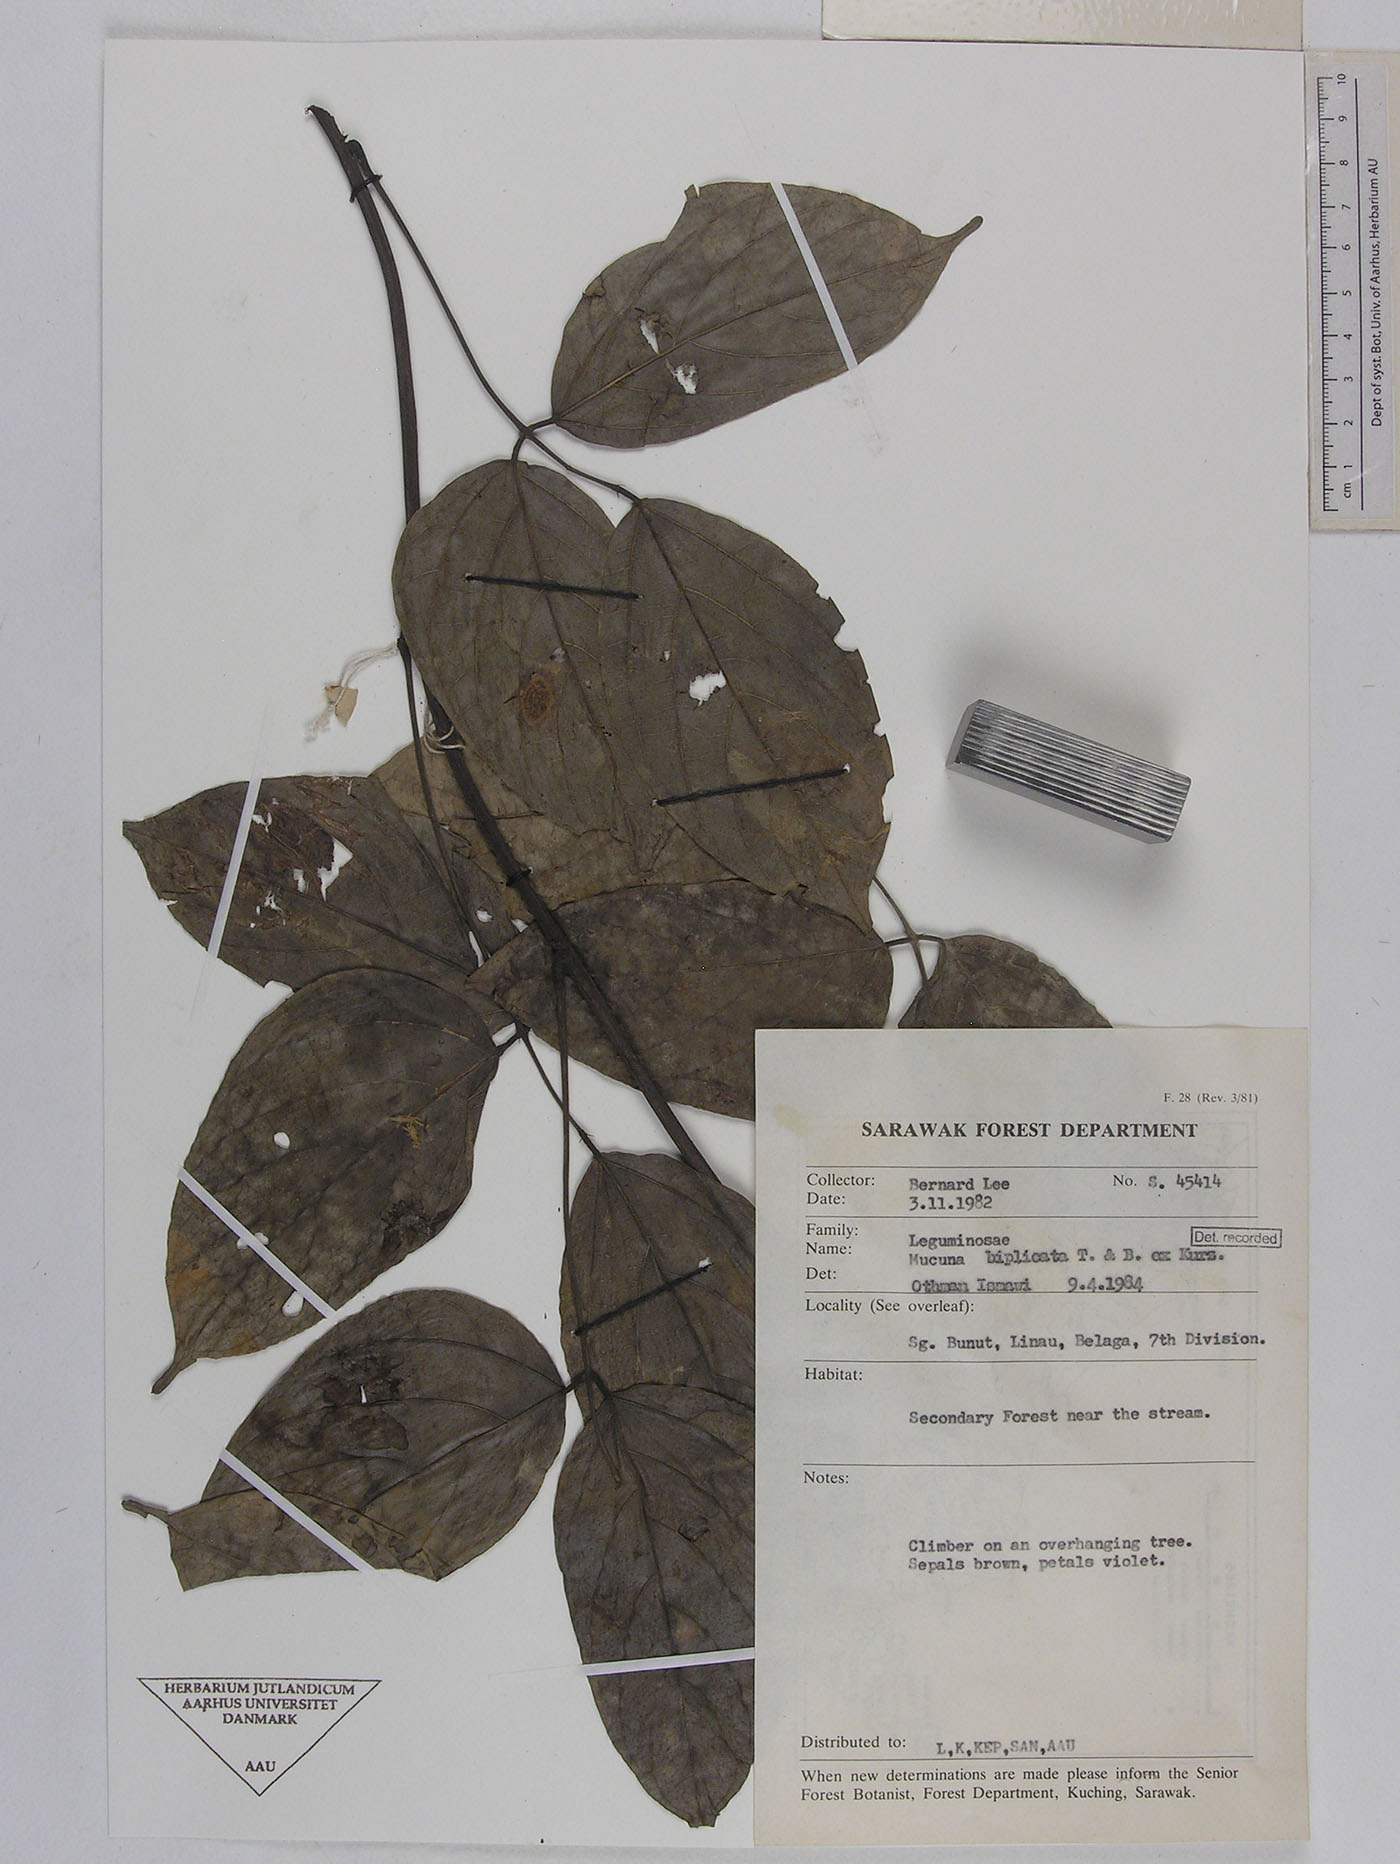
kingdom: Plantae
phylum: Tracheophyta
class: Magnoliopsida
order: Fabales
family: Fabaceae
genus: Mucuna
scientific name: Mucuna biplicata
